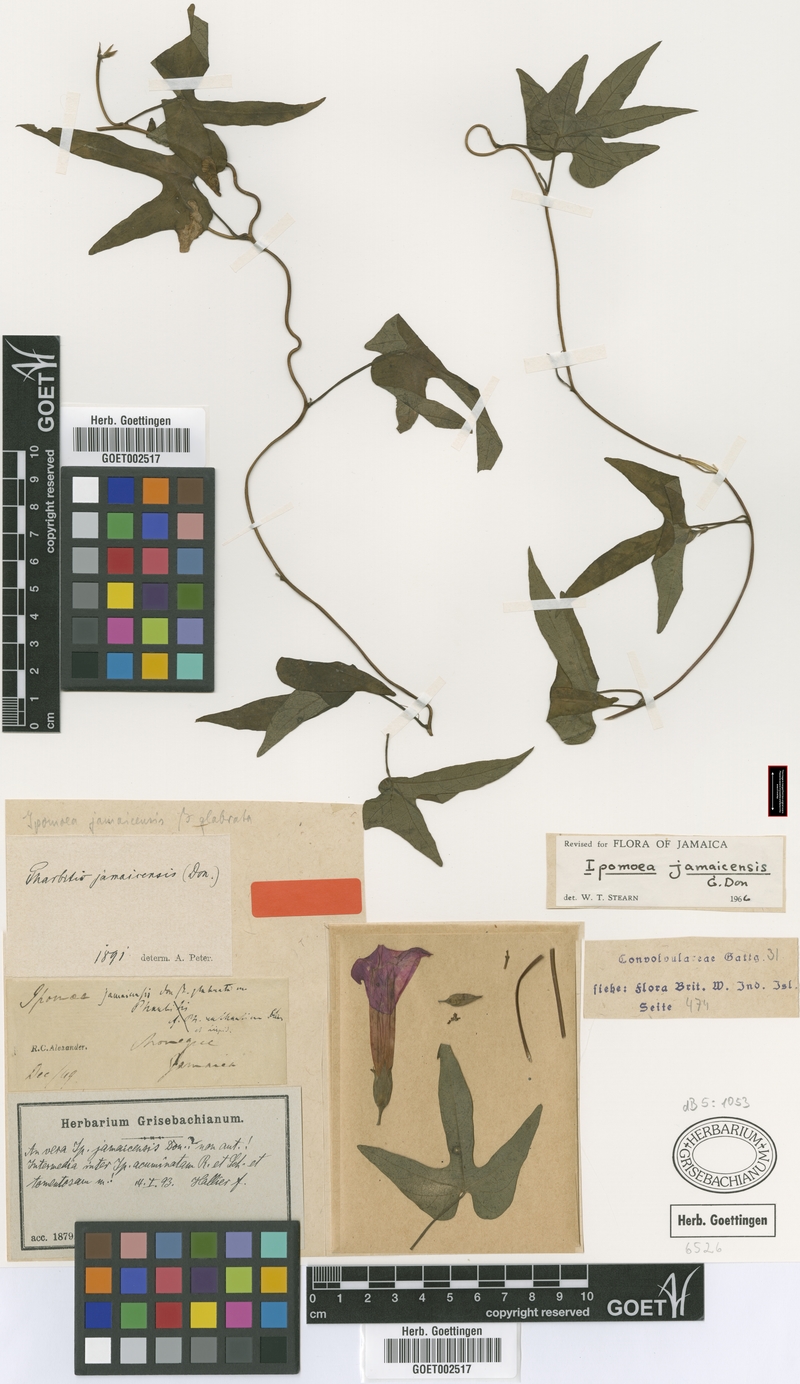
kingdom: Plantae
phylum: Tracheophyta
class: Magnoliopsida
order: Solanales
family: Convolvulaceae
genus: Ipomoea
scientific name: Ipomoea jamaicensis
